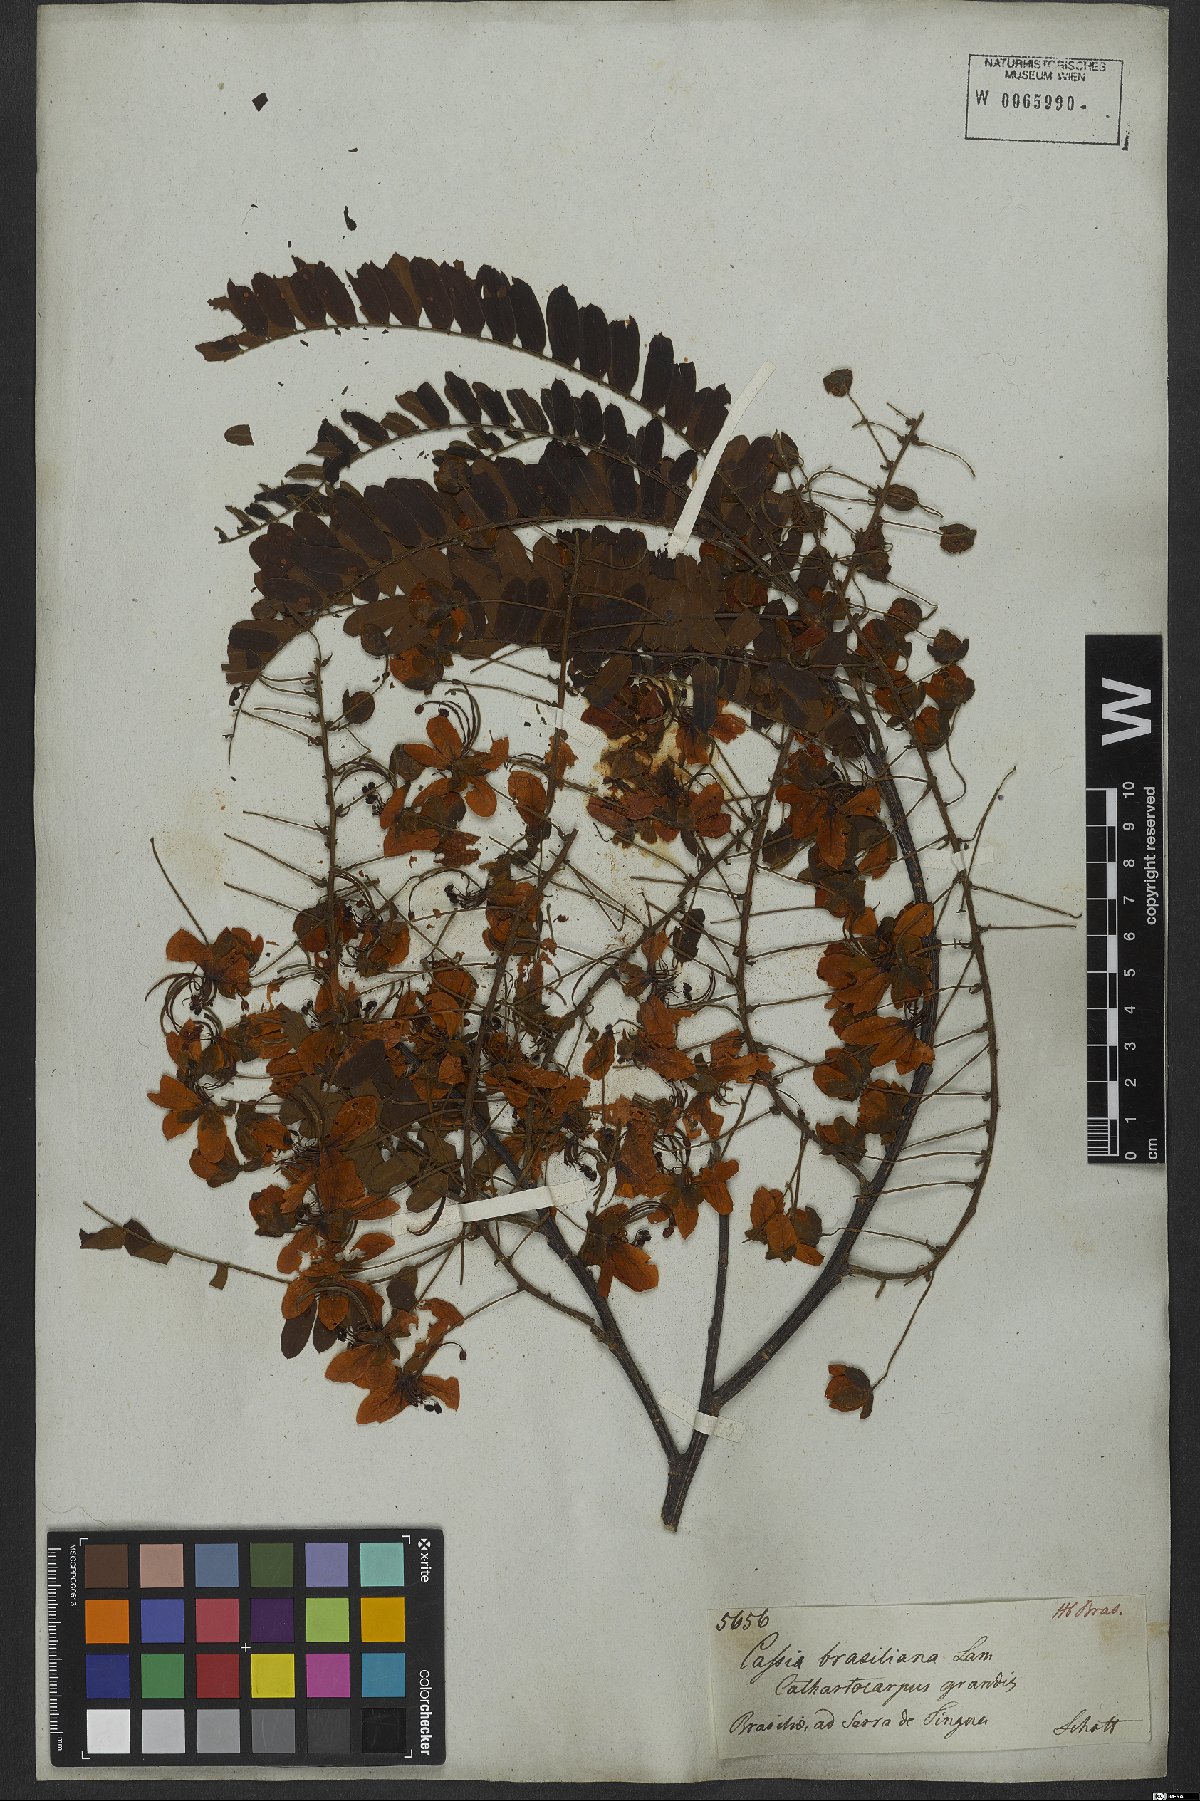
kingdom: Plantae
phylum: Tracheophyta
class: Magnoliopsida
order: Fabales
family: Fabaceae
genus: Cassia
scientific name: Cassia grandis
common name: Appleblossom cassia
